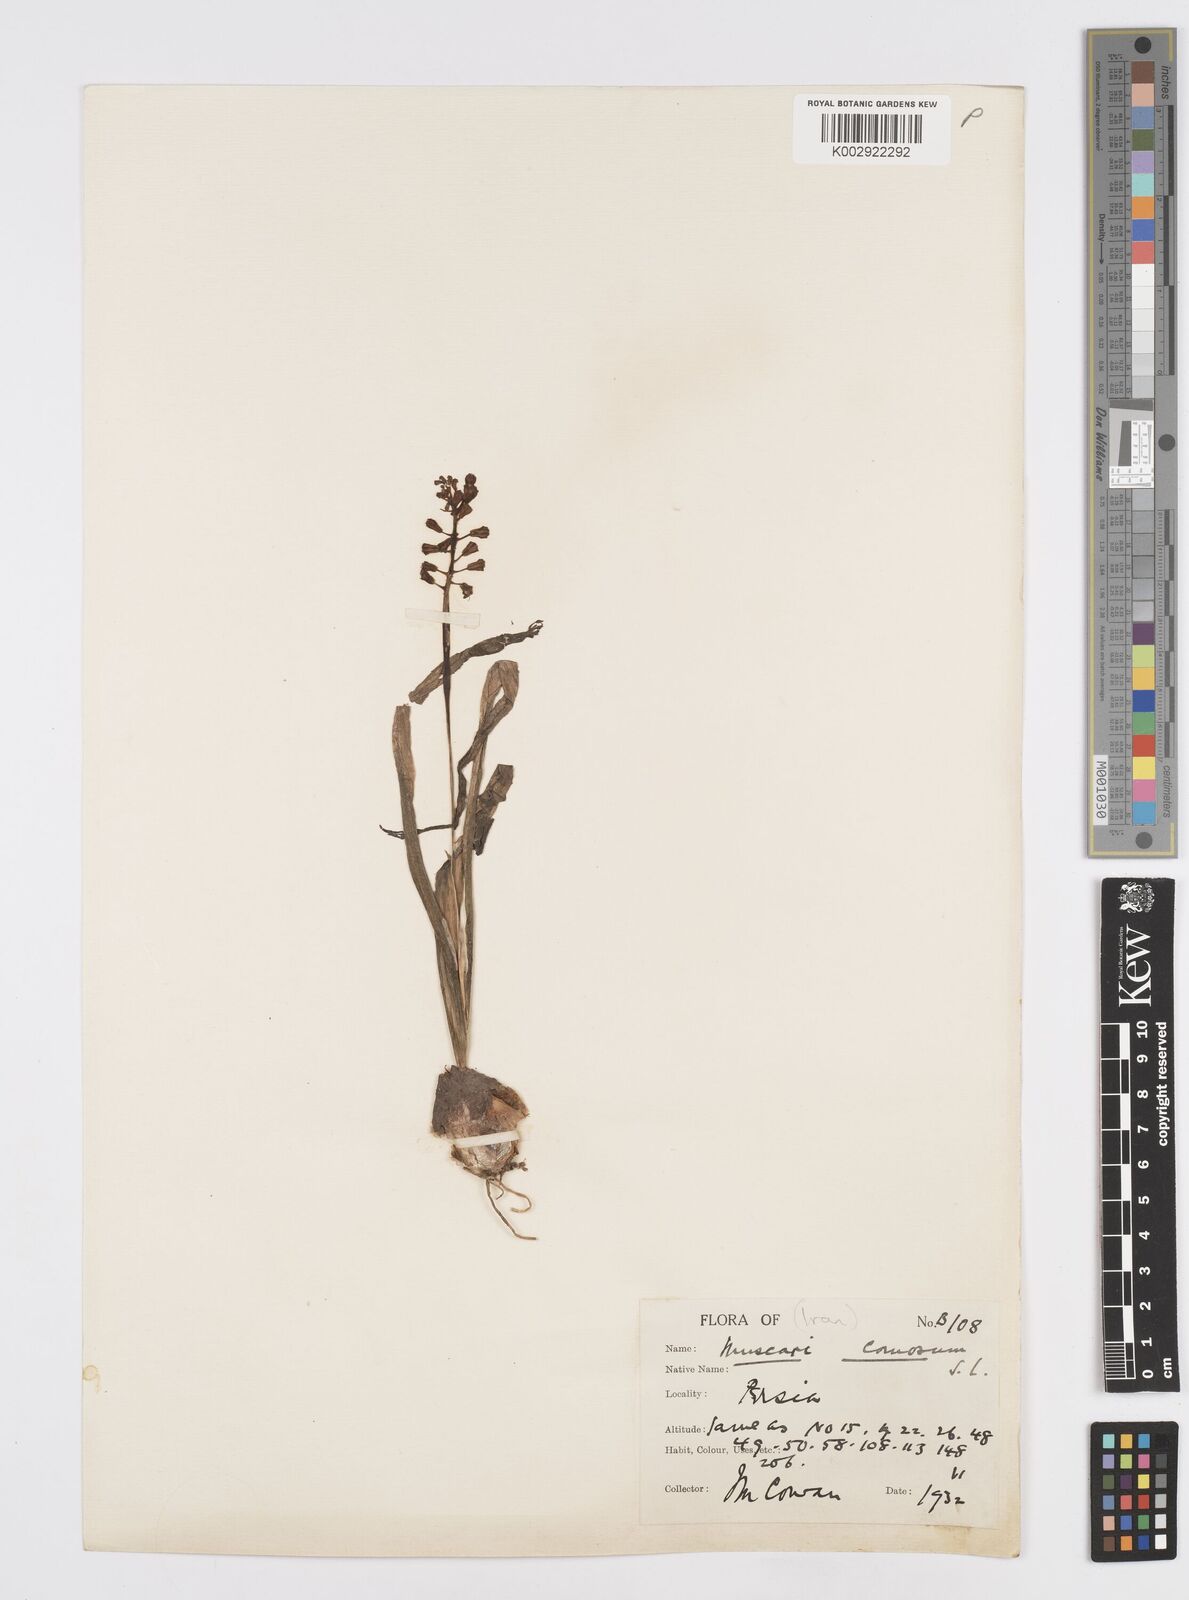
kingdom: Plantae
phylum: Tracheophyta
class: Liliopsida
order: Asparagales
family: Asparagaceae
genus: Muscari
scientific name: Muscari comosum
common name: Tassel hyacinth
